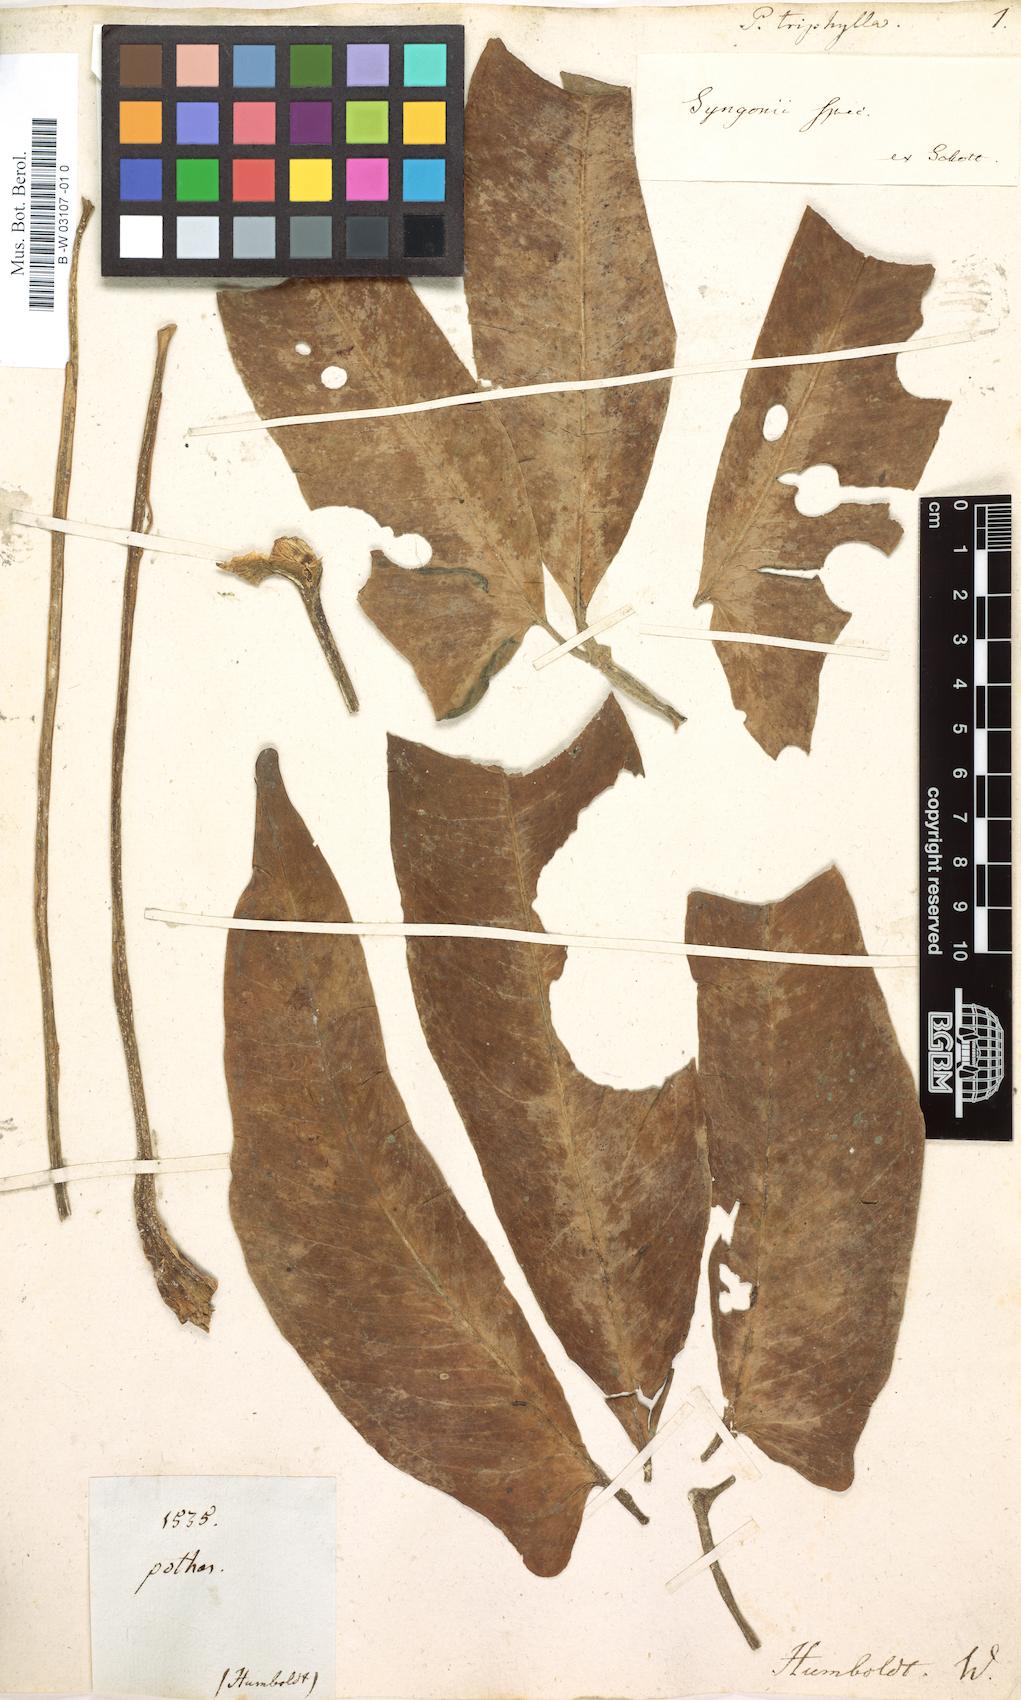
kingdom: Plantae
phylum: Tracheophyta
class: Liliopsida
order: Alismatales
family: Araceae
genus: Anthurium
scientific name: Anthurium triphyllum
